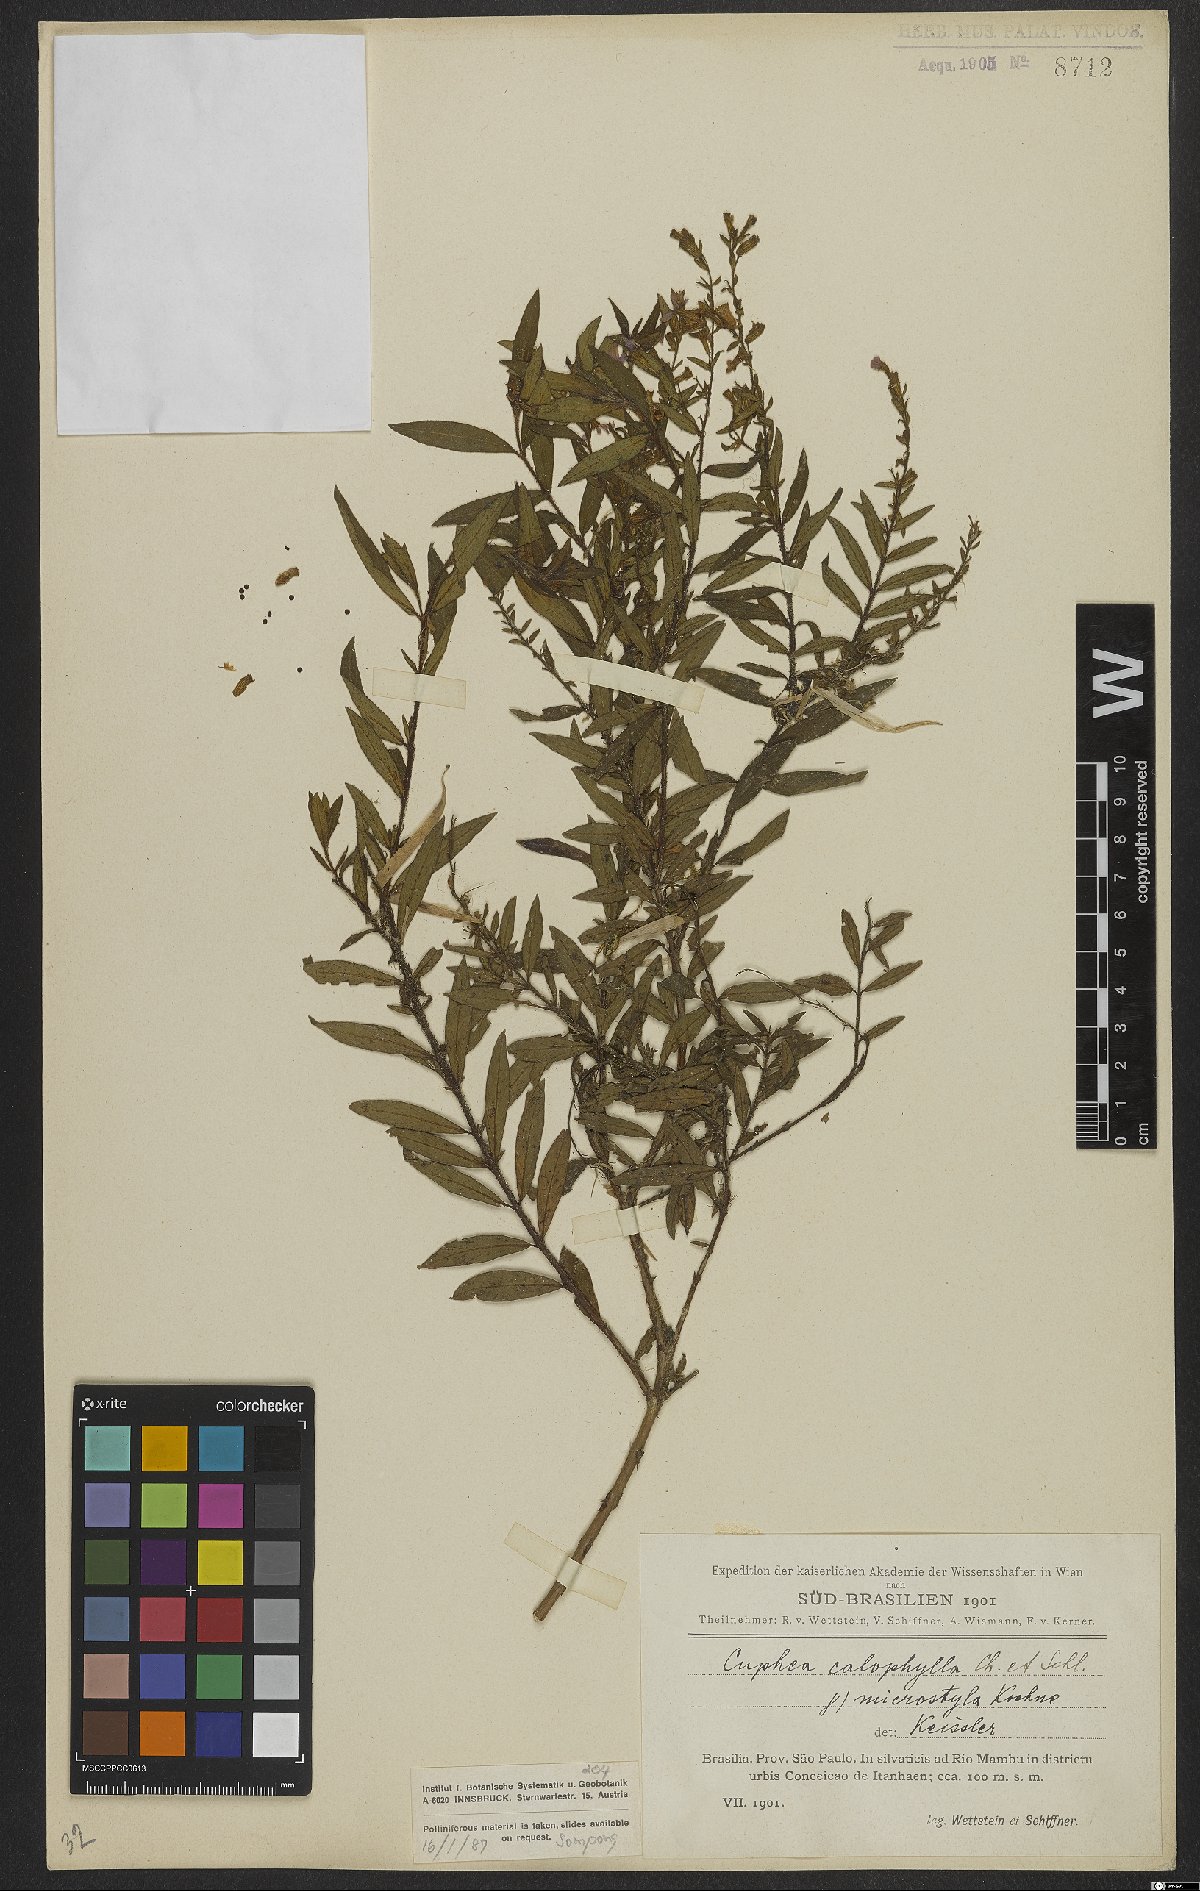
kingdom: Plantae
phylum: Tracheophyta
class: Magnoliopsida
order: Myrtales
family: Lythraceae
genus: Cuphea
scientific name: Cuphea calophylla
